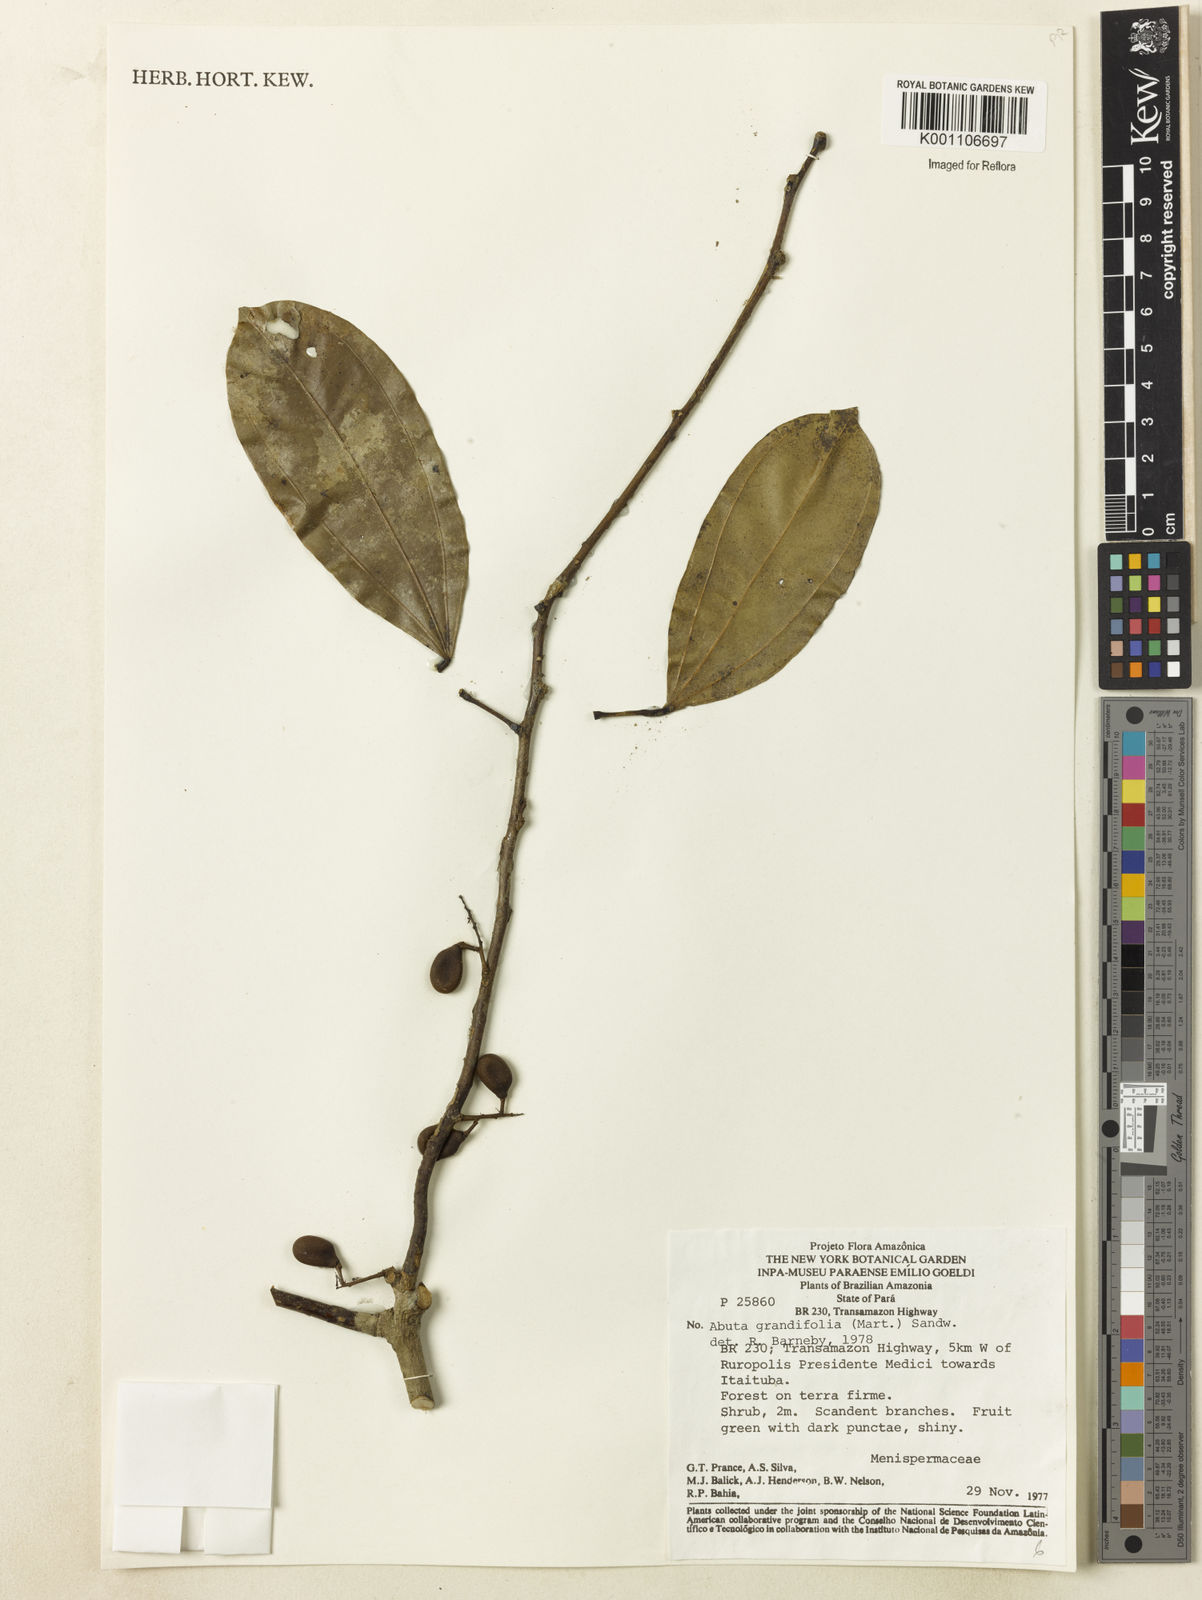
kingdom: Plantae
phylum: Tracheophyta
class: Magnoliopsida
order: Ranunculales
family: Menispermaceae
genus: Abuta
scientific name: Abuta grandifolia
